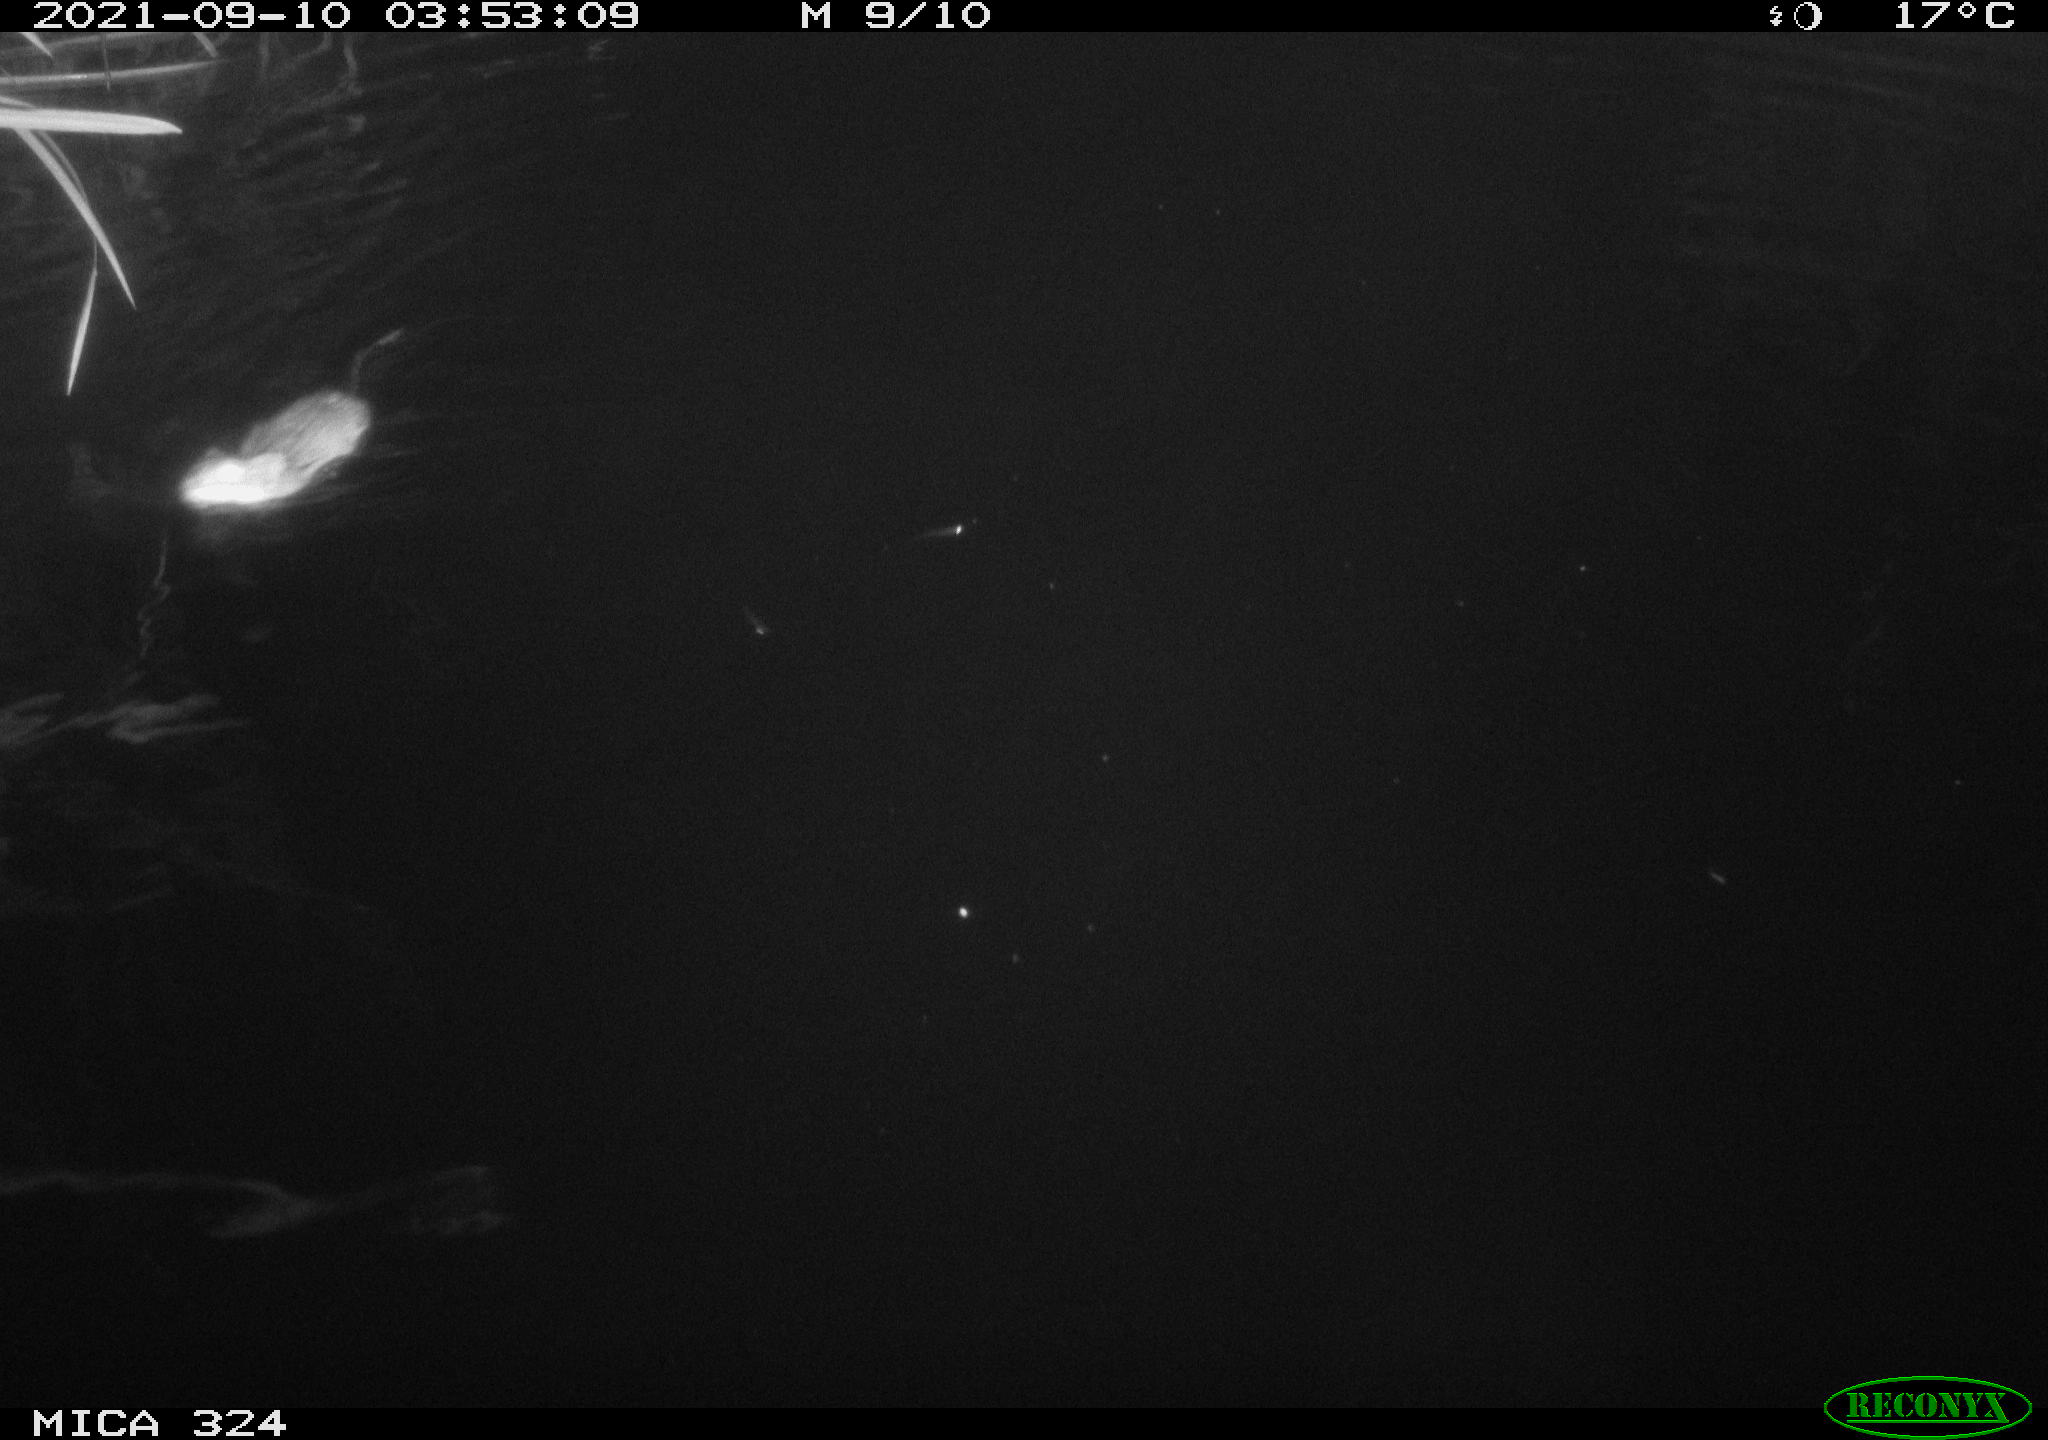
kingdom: Animalia
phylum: Chordata
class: Mammalia
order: Rodentia
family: Cricetidae
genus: Ondatra
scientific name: Ondatra zibethicus
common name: Muskrat
